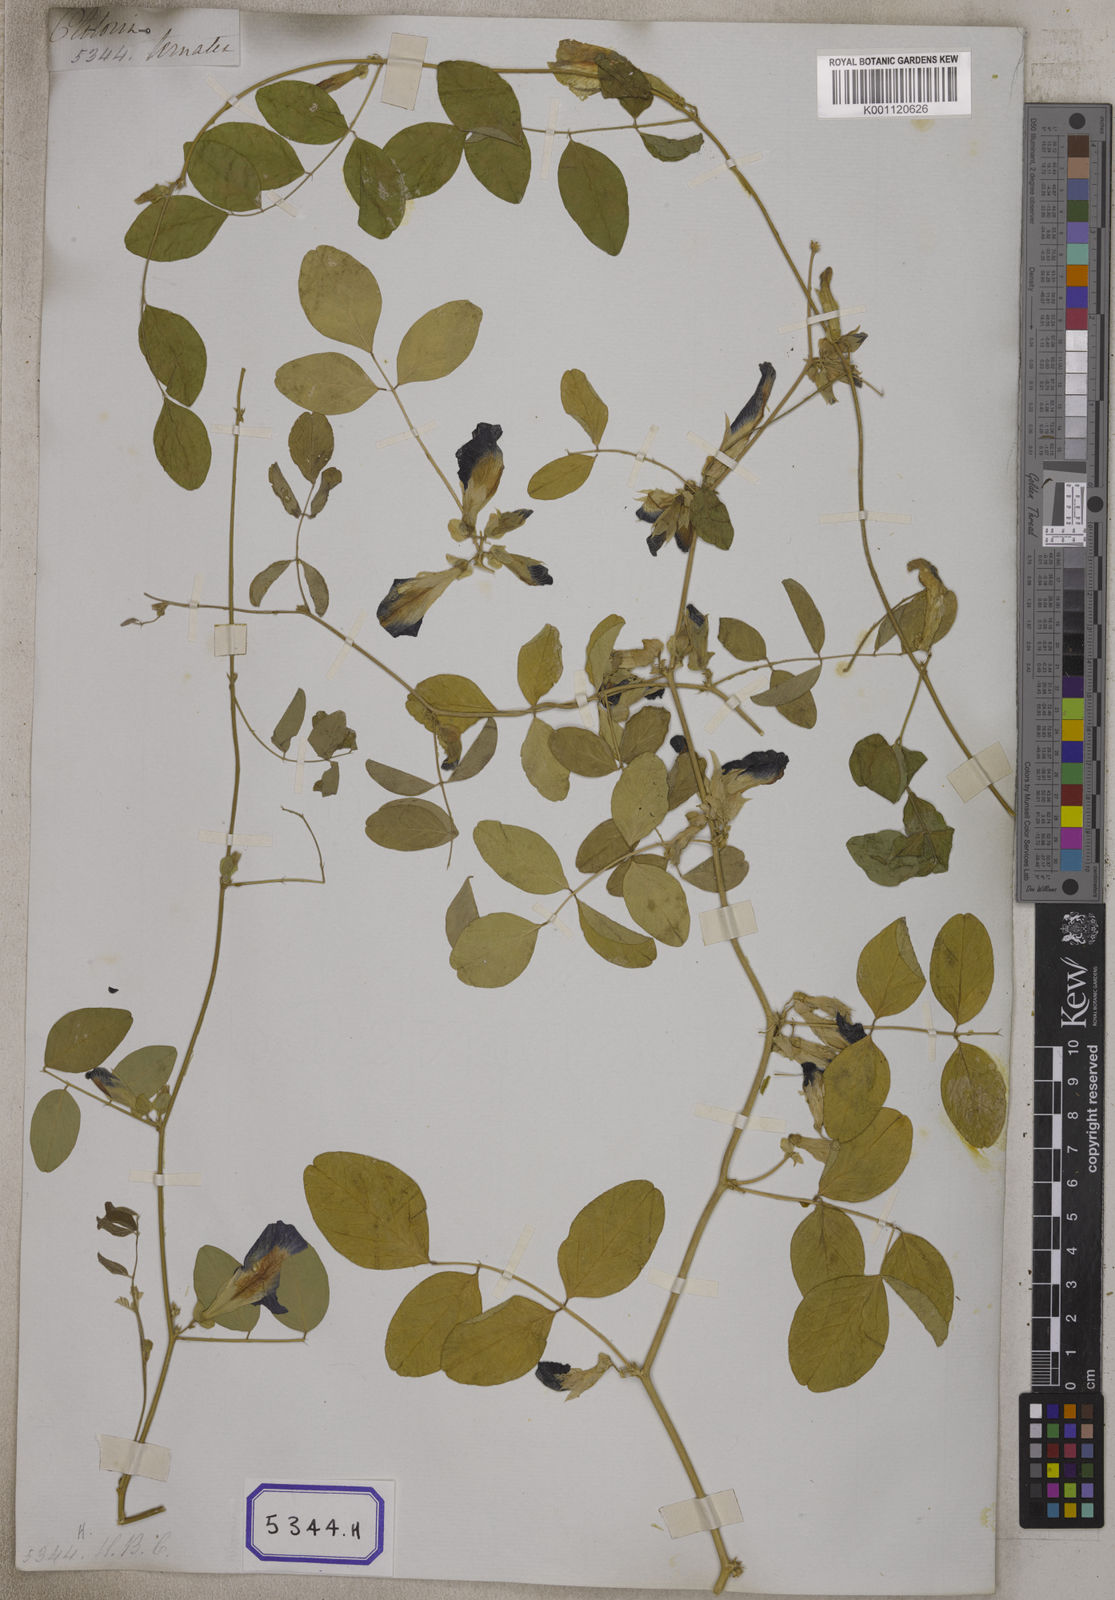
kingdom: Plantae
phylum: Tracheophyta
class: Magnoliopsida
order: Fabales
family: Fabaceae
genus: Clitoria
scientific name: Clitoria ternatea
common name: Asian pigeonwings
